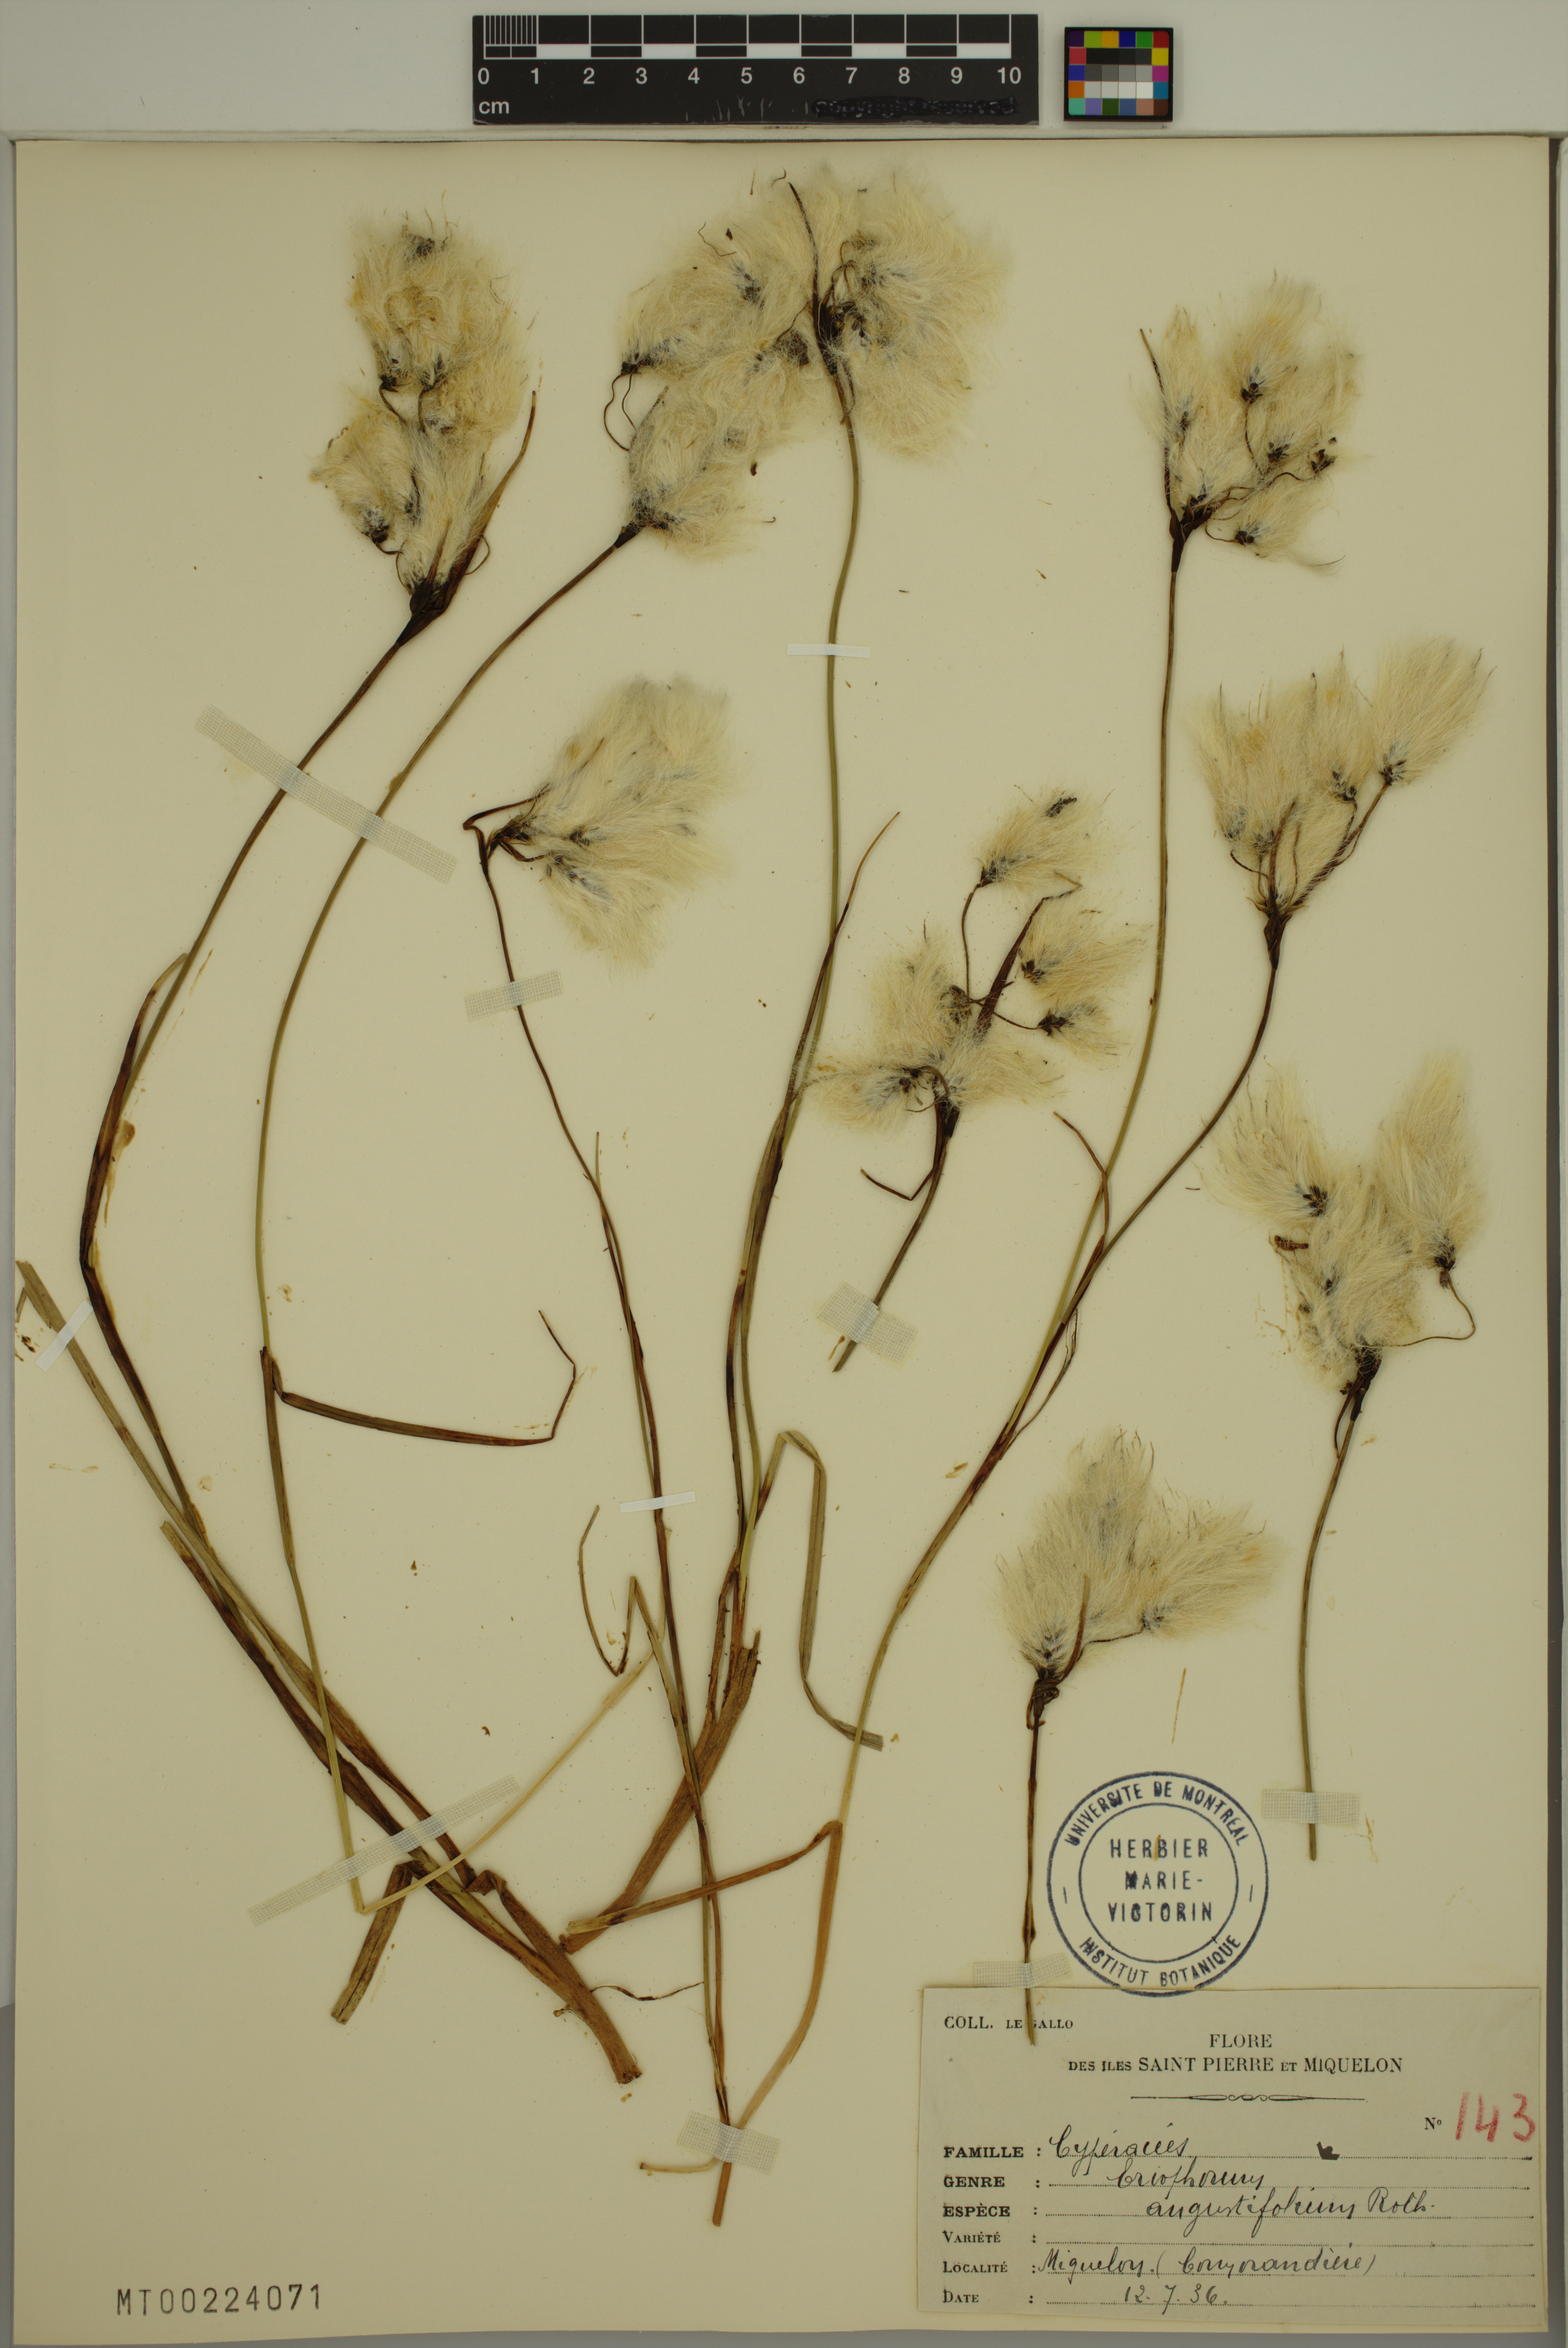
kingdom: Plantae
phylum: Tracheophyta
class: Liliopsida
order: Poales
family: Cyperaceae
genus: Eriophorum
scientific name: Eriophorum angustifolium
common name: Common cottongrass
